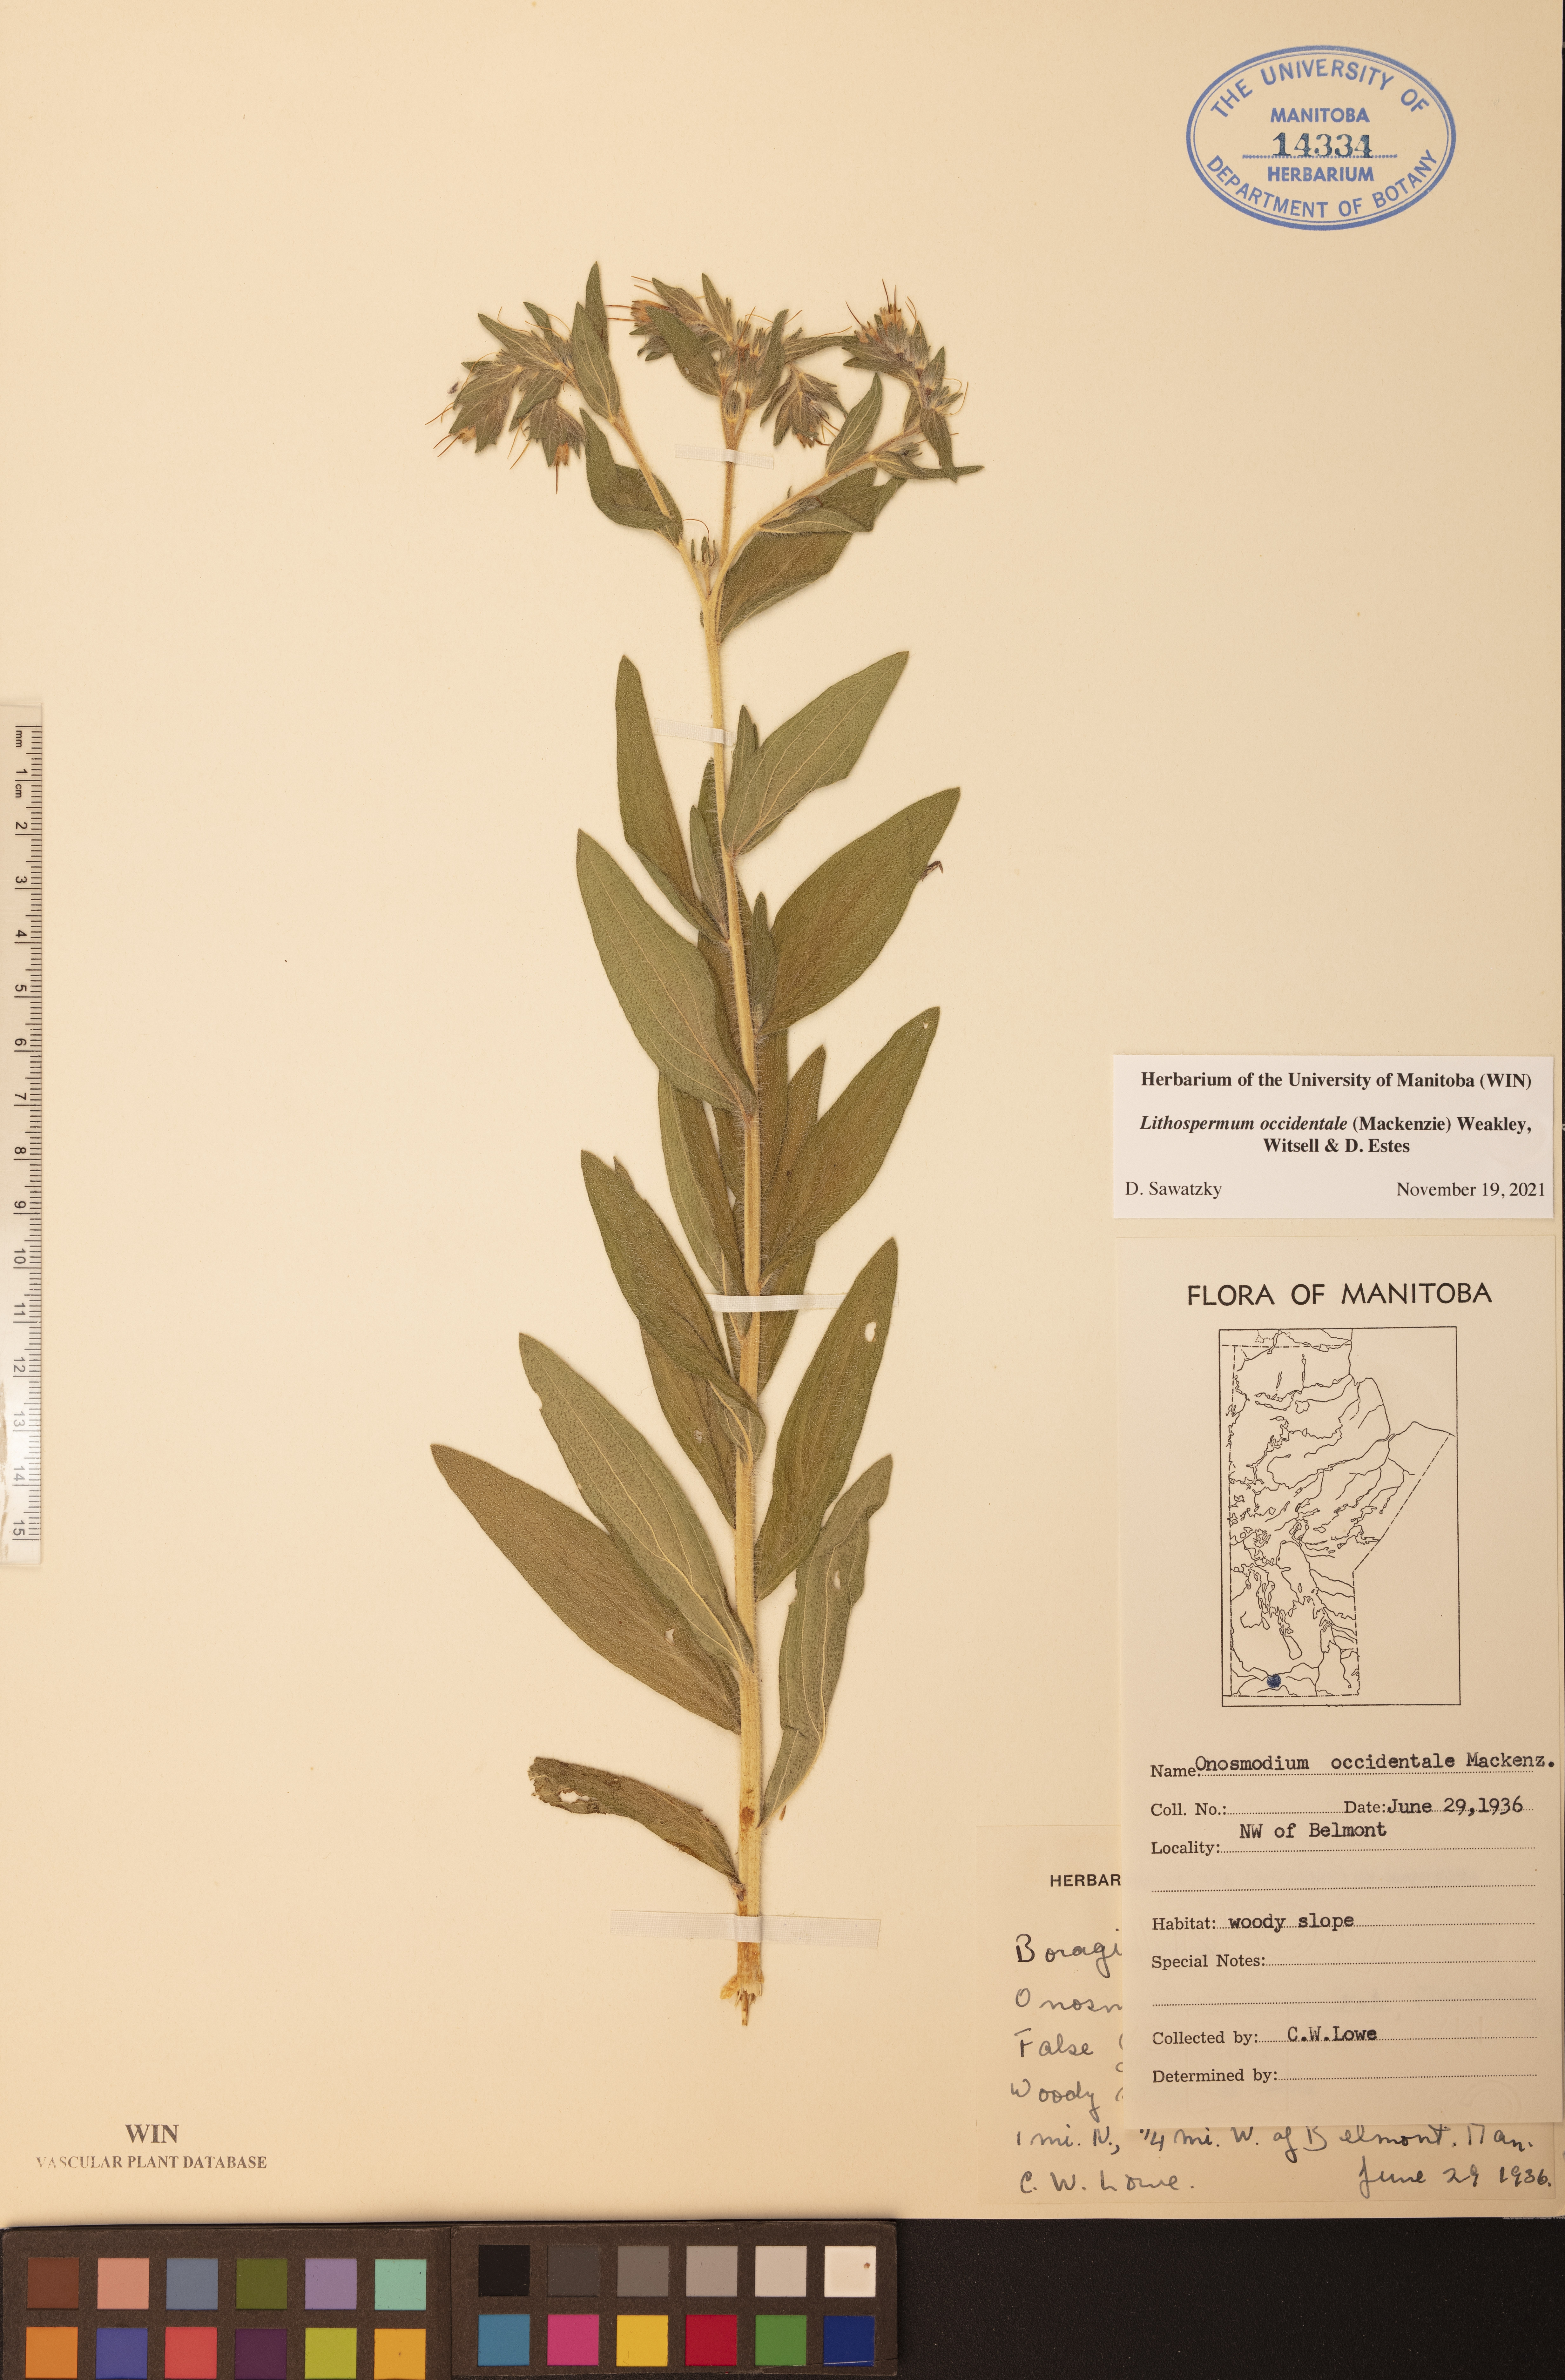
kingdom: Plantae
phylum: Tracheophyta
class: Magnoliopsida
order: Boraginales
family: Boraginaceae
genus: Lithospermum
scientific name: Lithospermum occidentale
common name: Western false gromwell
